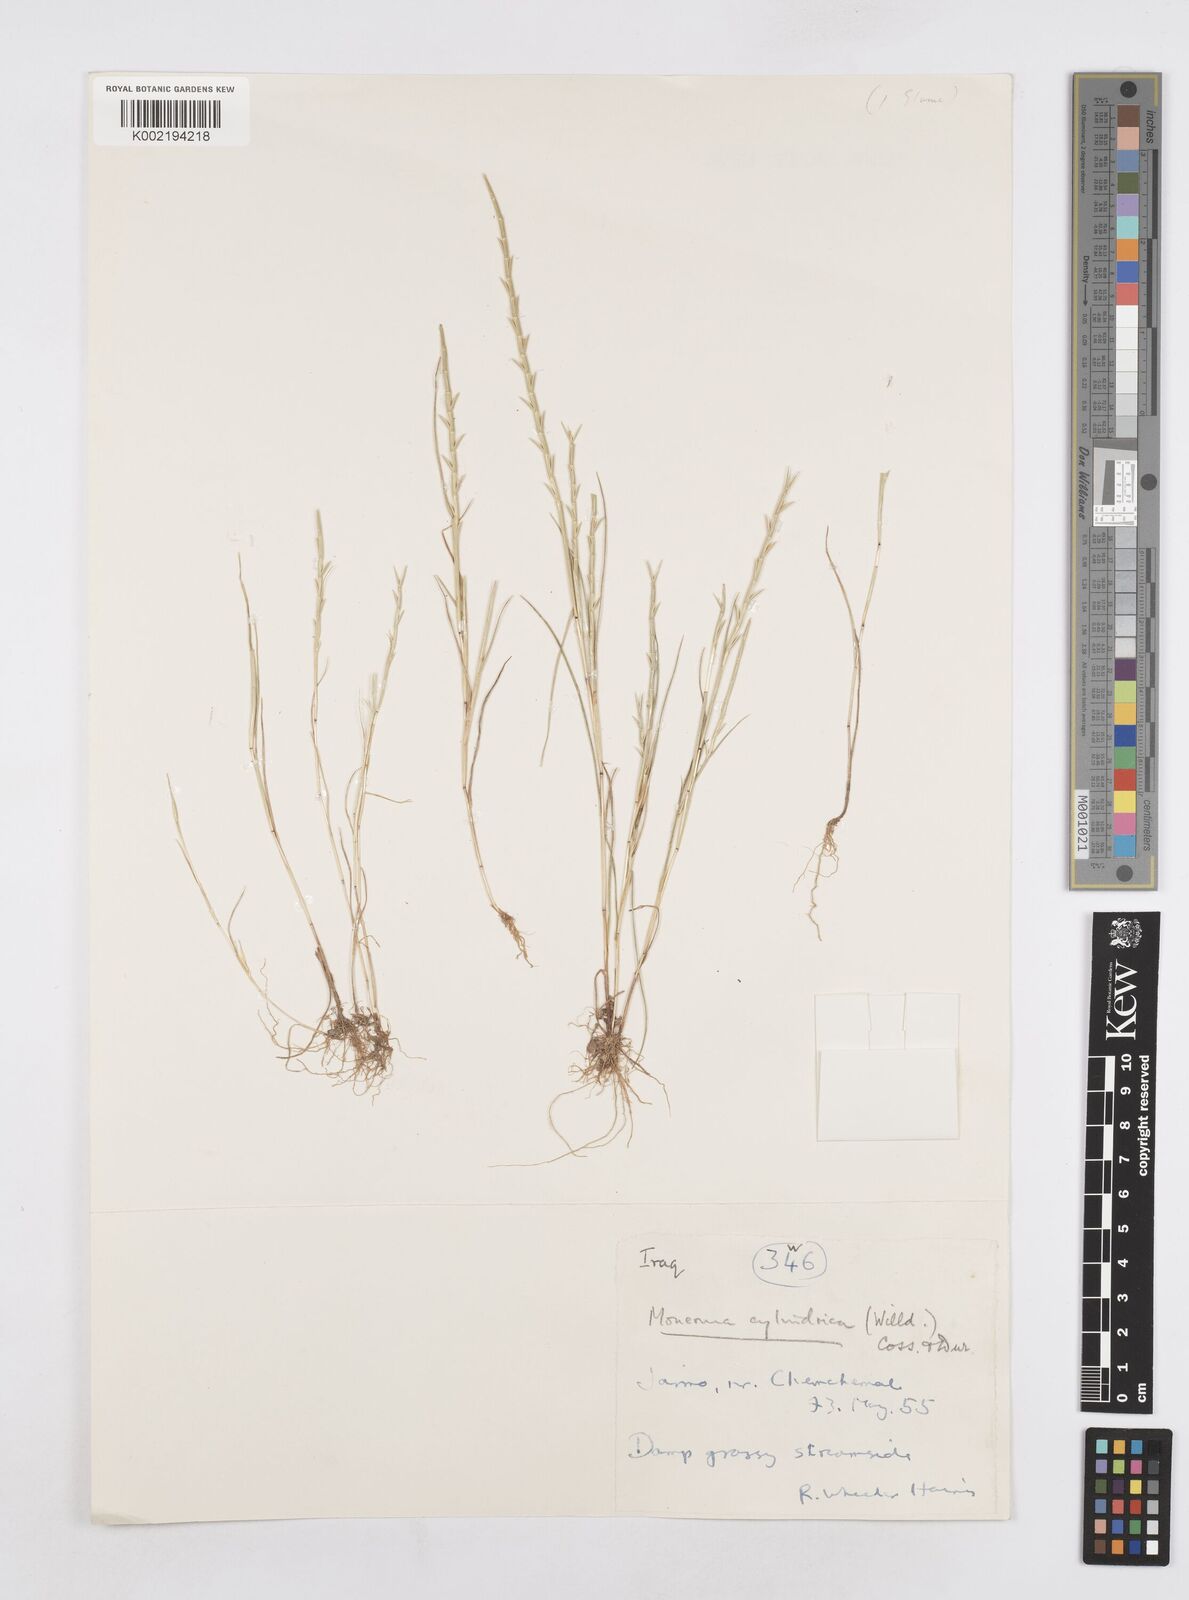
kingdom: Plantae
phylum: Tracheophyta
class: Liliopsida
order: Poales
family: Poaceae
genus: Parapholis
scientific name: Parapholis cylindrica
